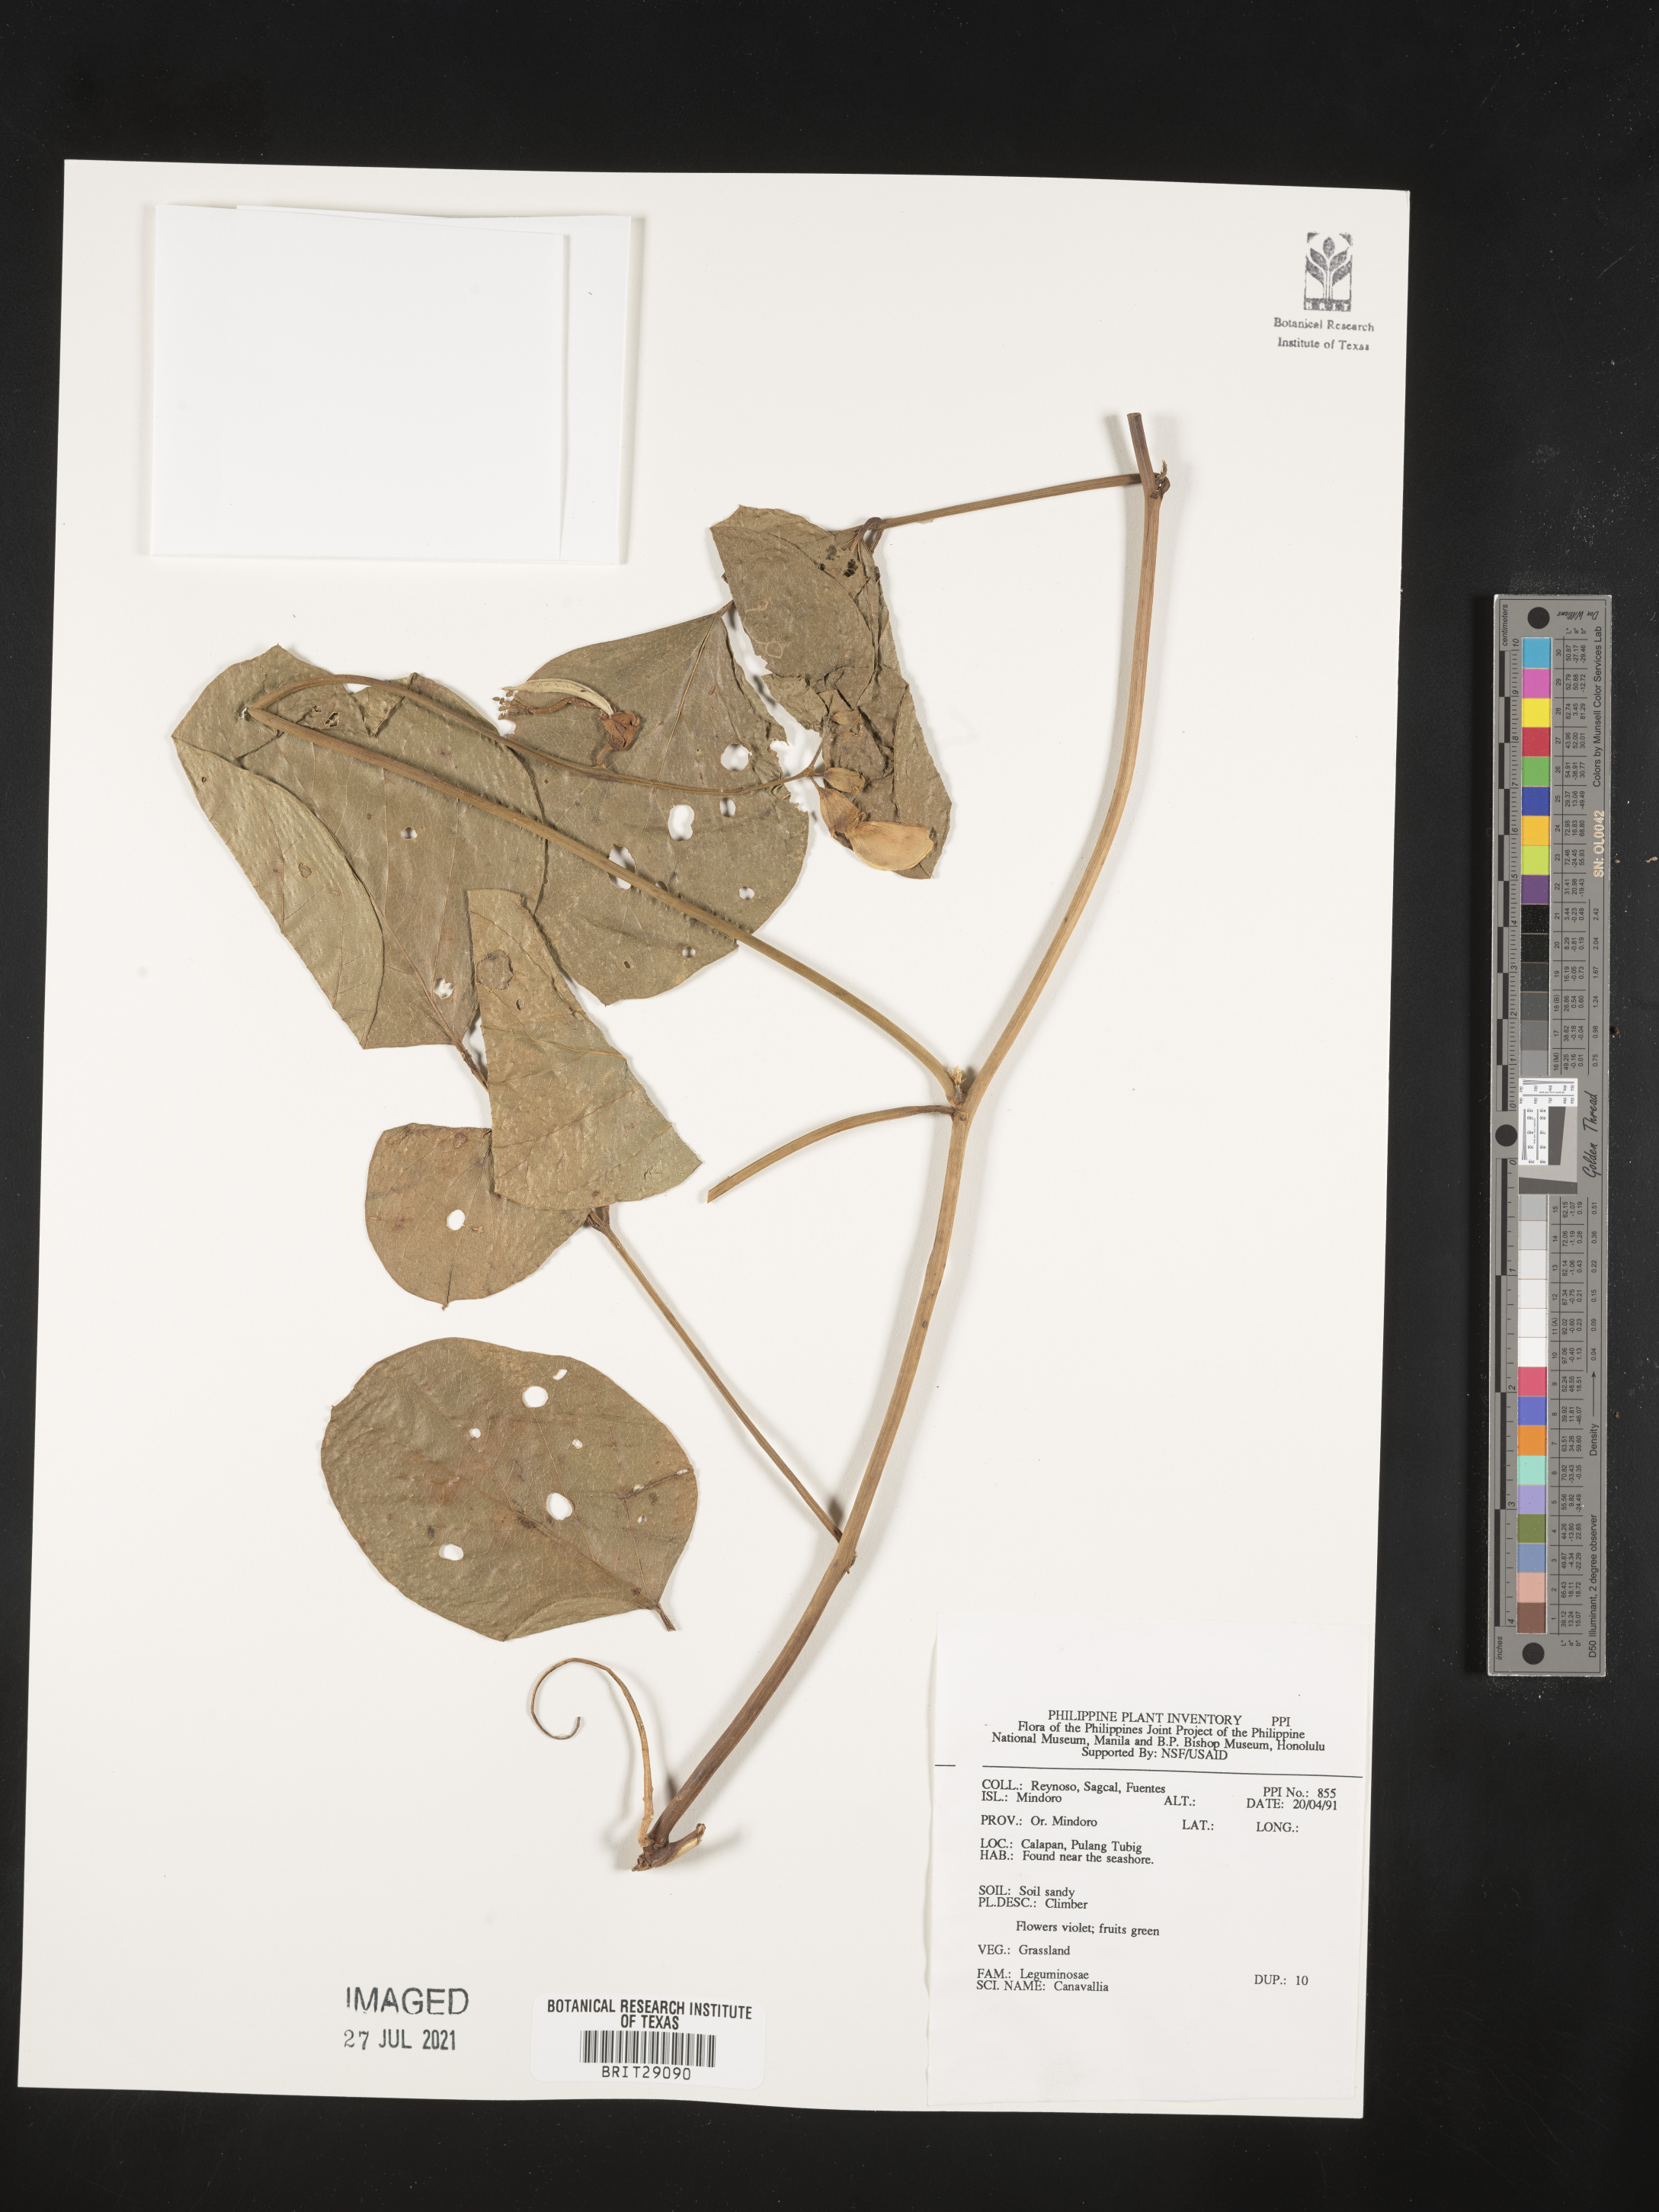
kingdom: Plantae
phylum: Tracheophyta
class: Magnoliopsida
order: Fabales
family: Fabaceae
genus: Canavalia
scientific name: Canavalia
